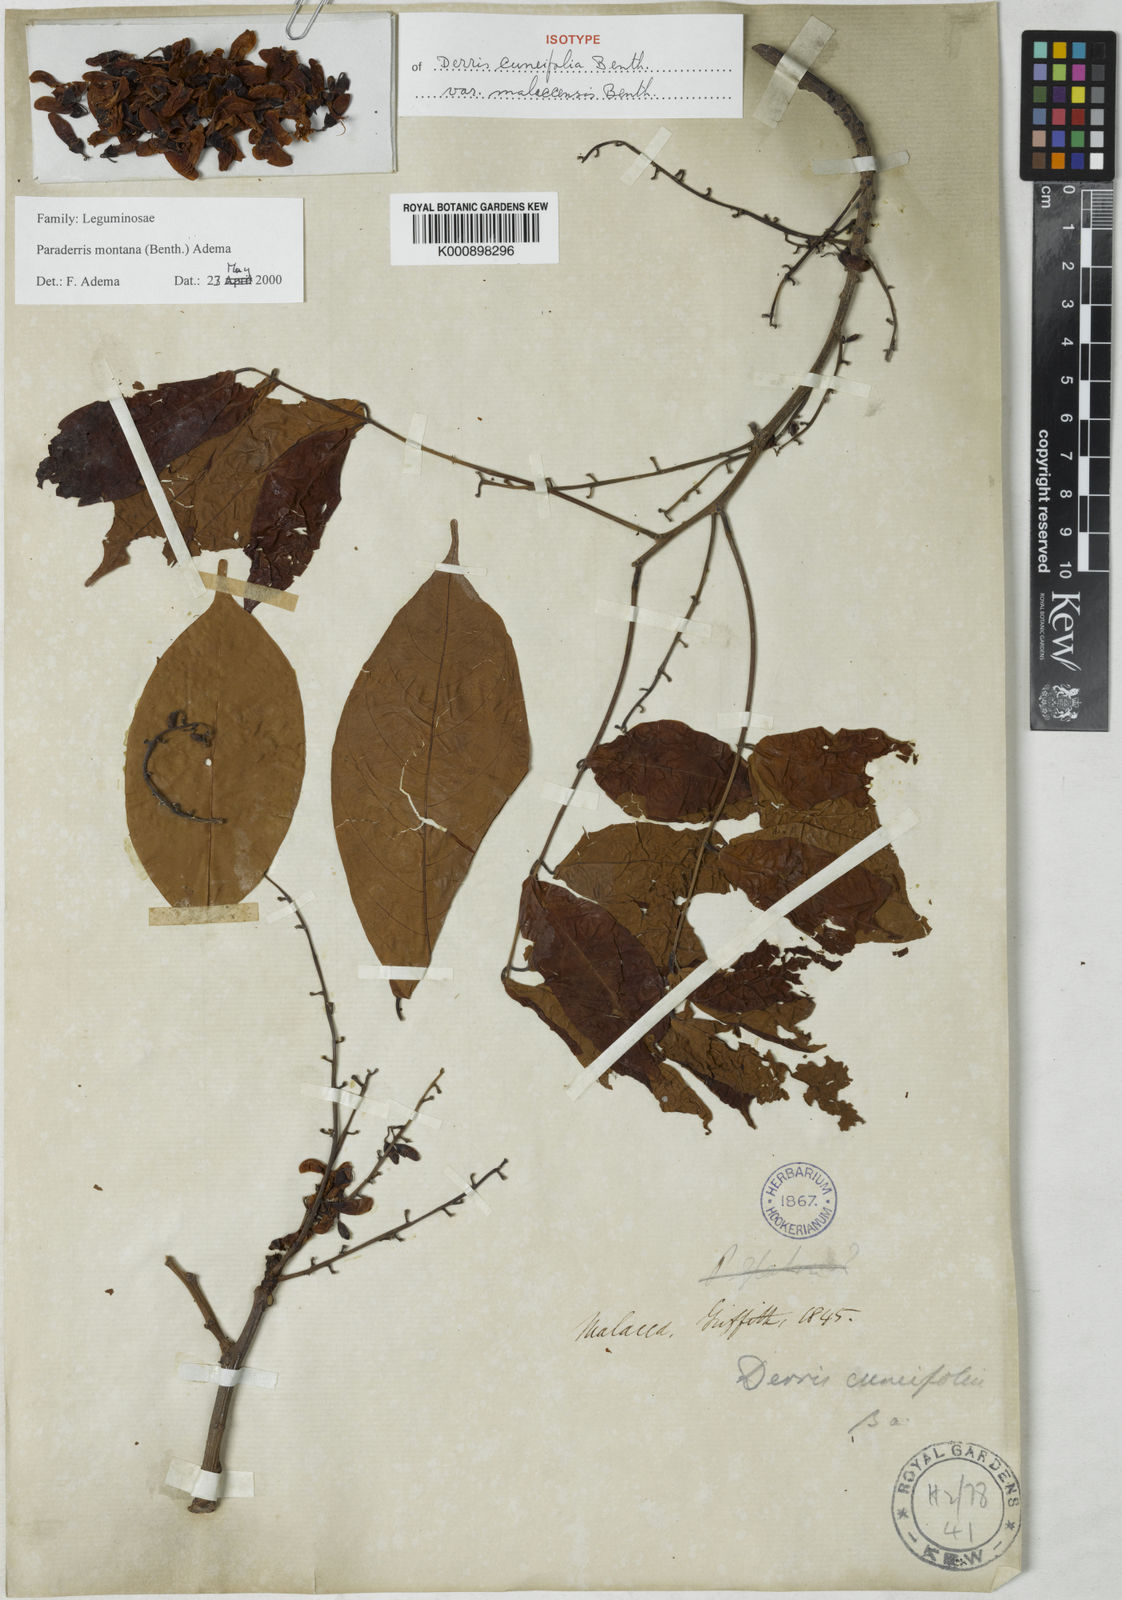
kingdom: Plantae
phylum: Tracheophyta
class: Magnoliopsida
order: Fabales
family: Fabaceae
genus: Derris
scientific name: Derris montana
